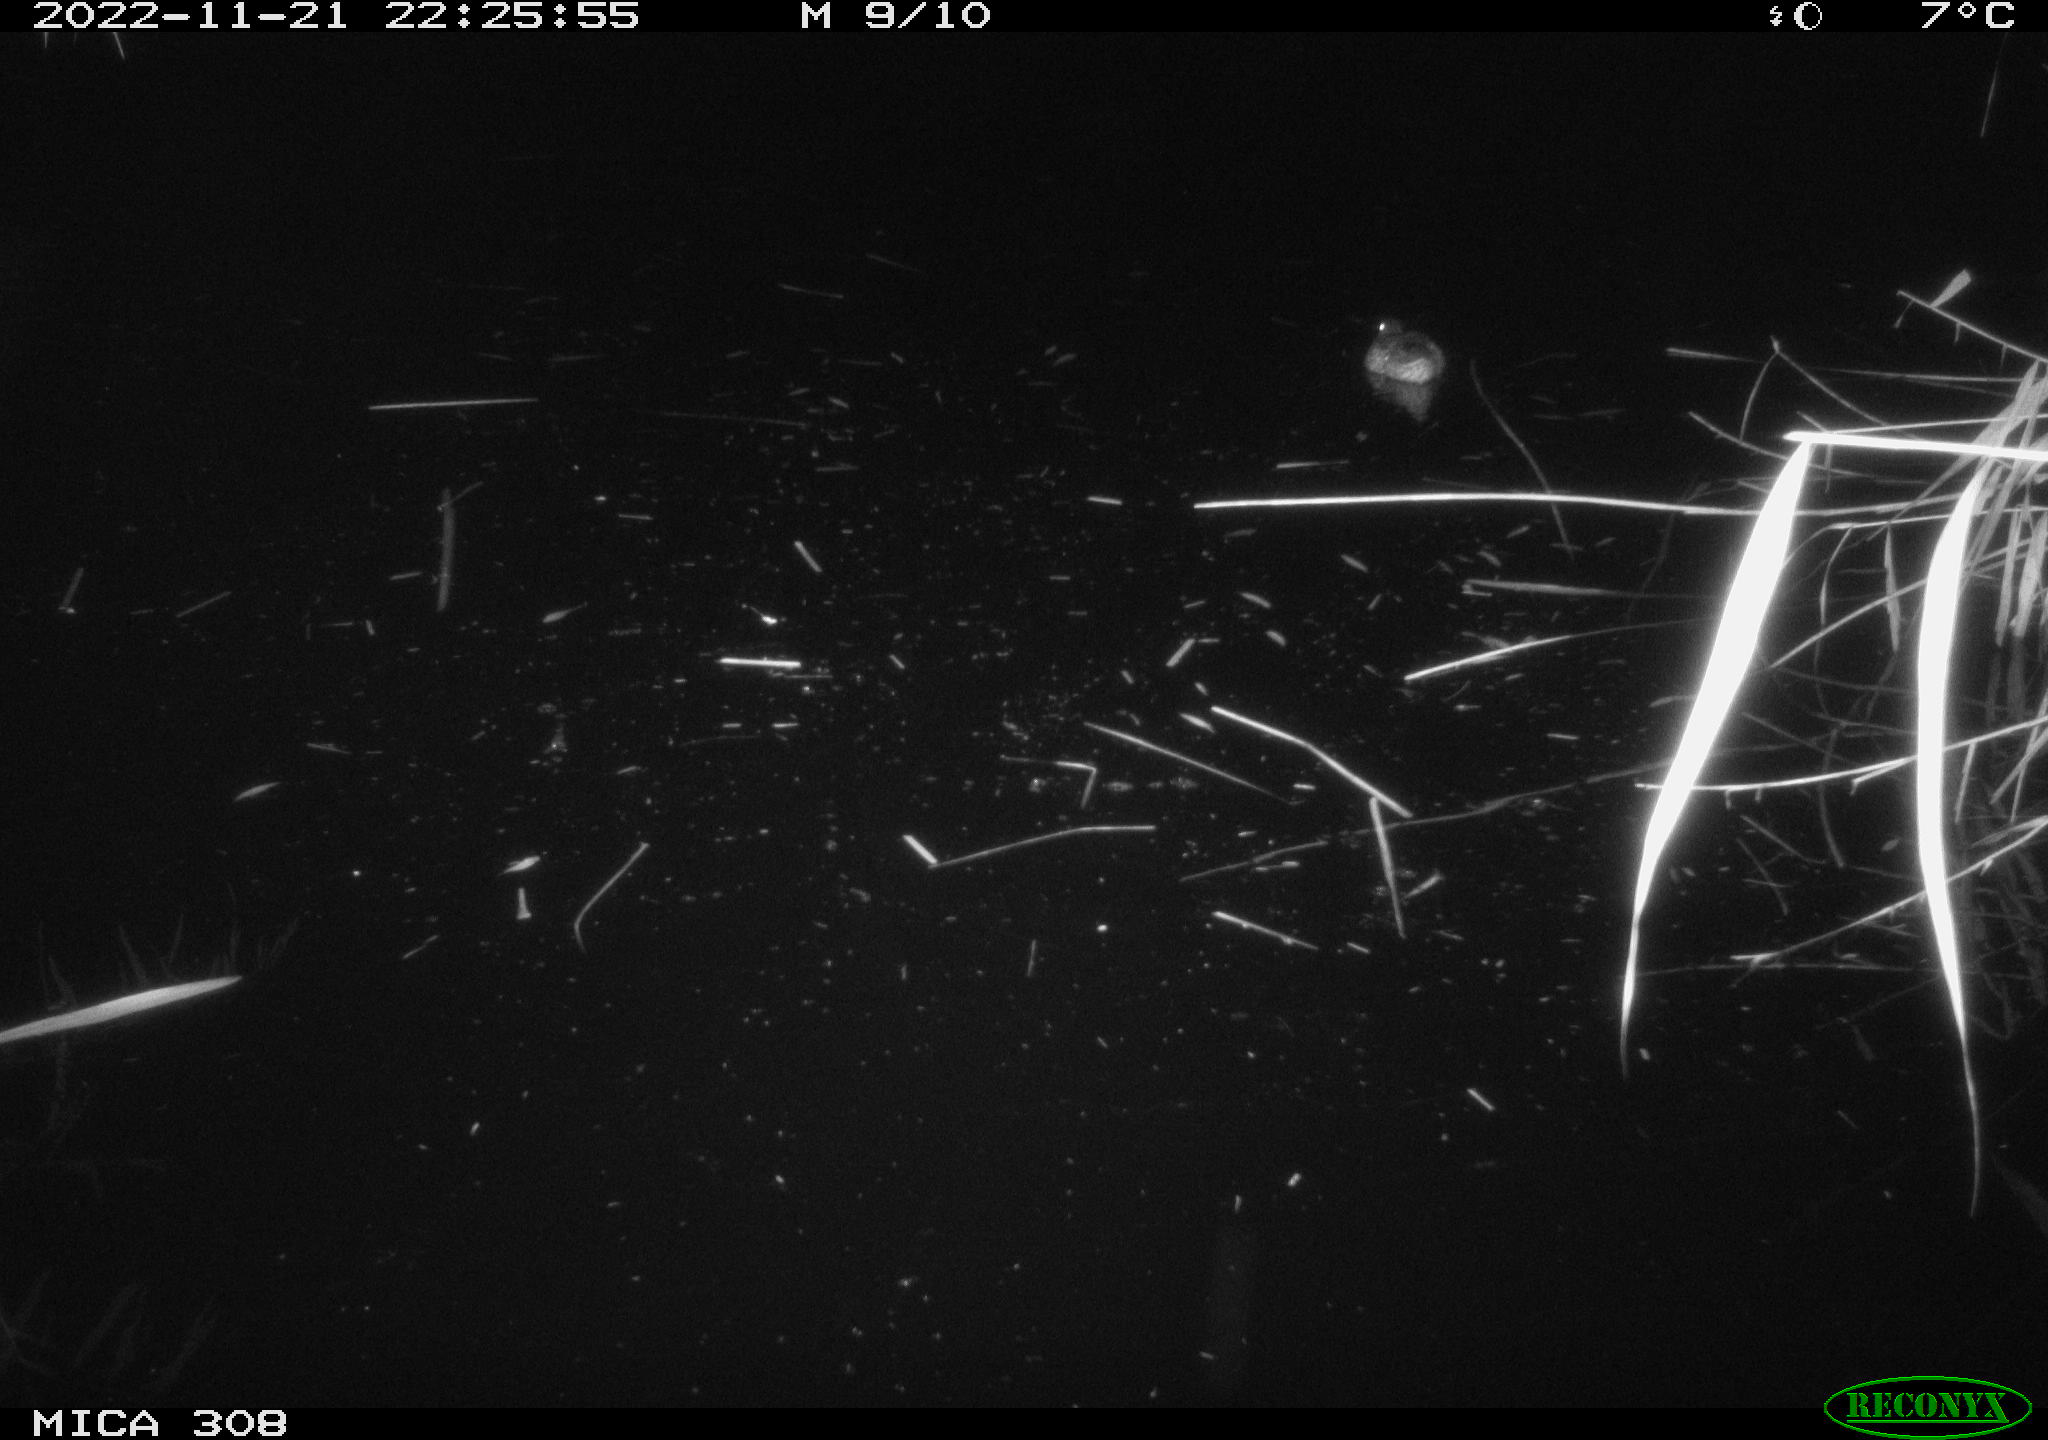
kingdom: Animalia
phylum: Chordata
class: Aves
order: Gruiformes
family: Rallidae
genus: Gallinula
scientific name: Gallinula chloropus
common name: Common moorhen
